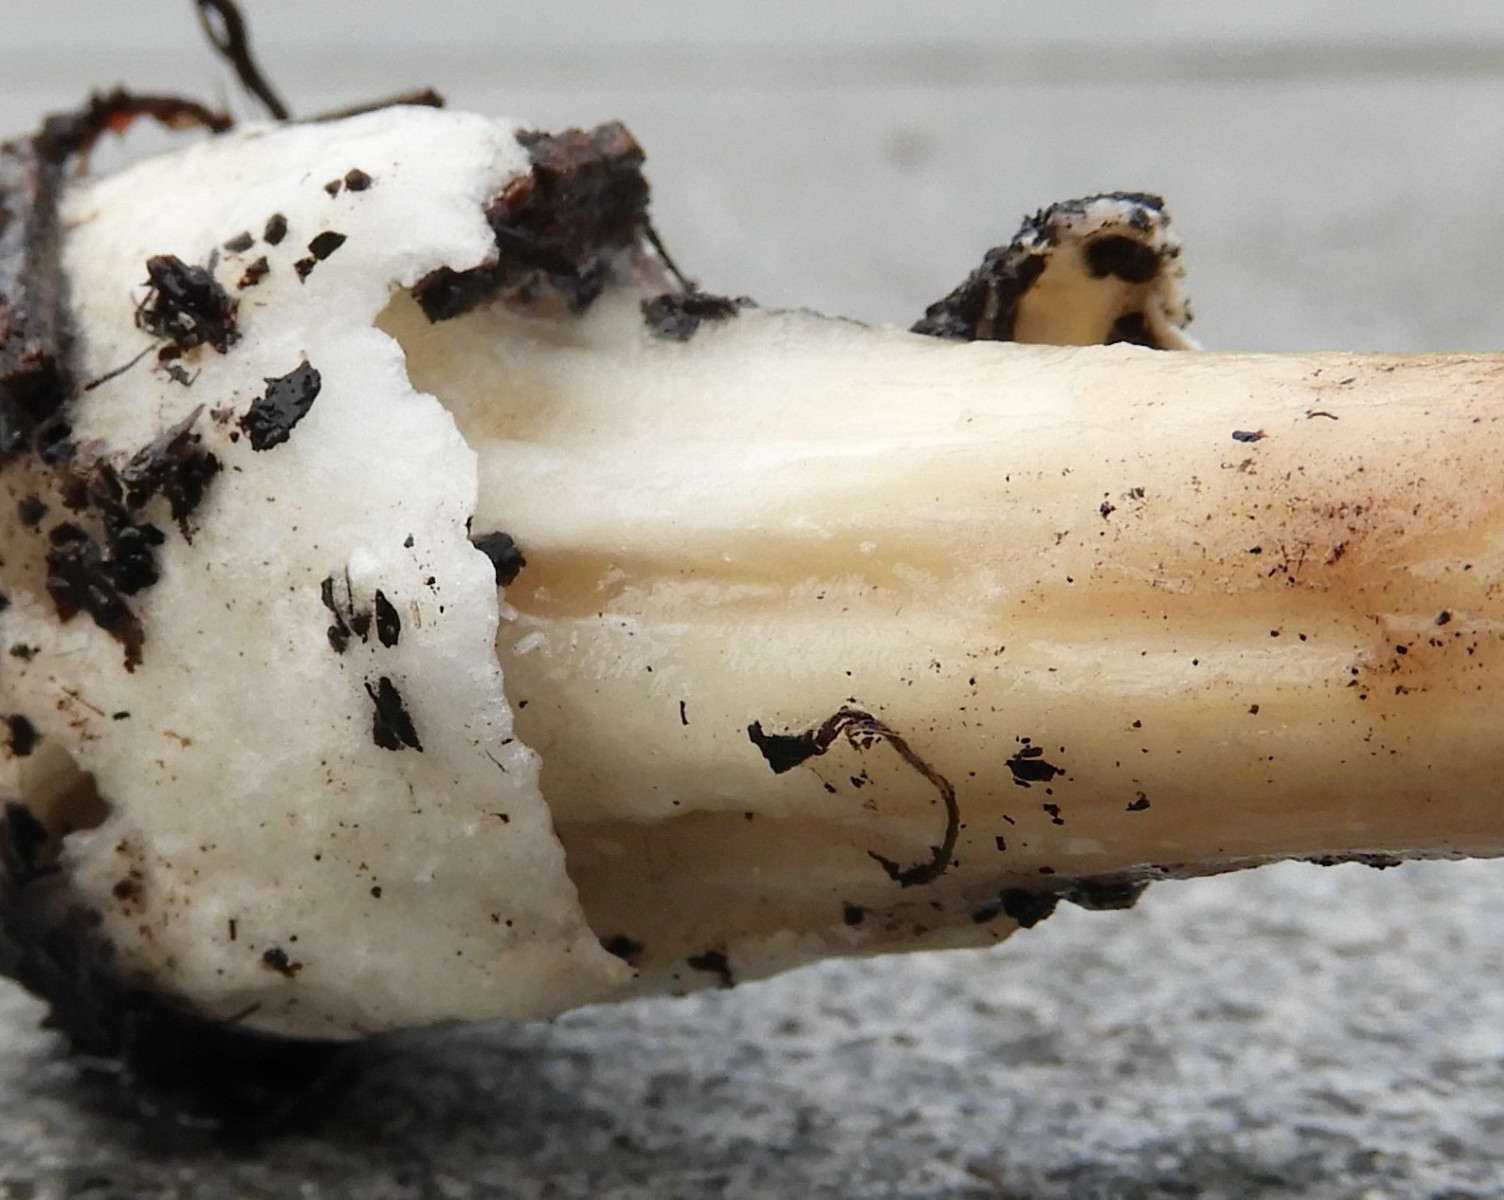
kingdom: Fungi
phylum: Basidiomycota
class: Agaricomycetes
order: Agaricales
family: Pluteaceae
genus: Volvopluteus
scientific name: Volvopluteus gloiocephalus
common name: høj posesvamp
